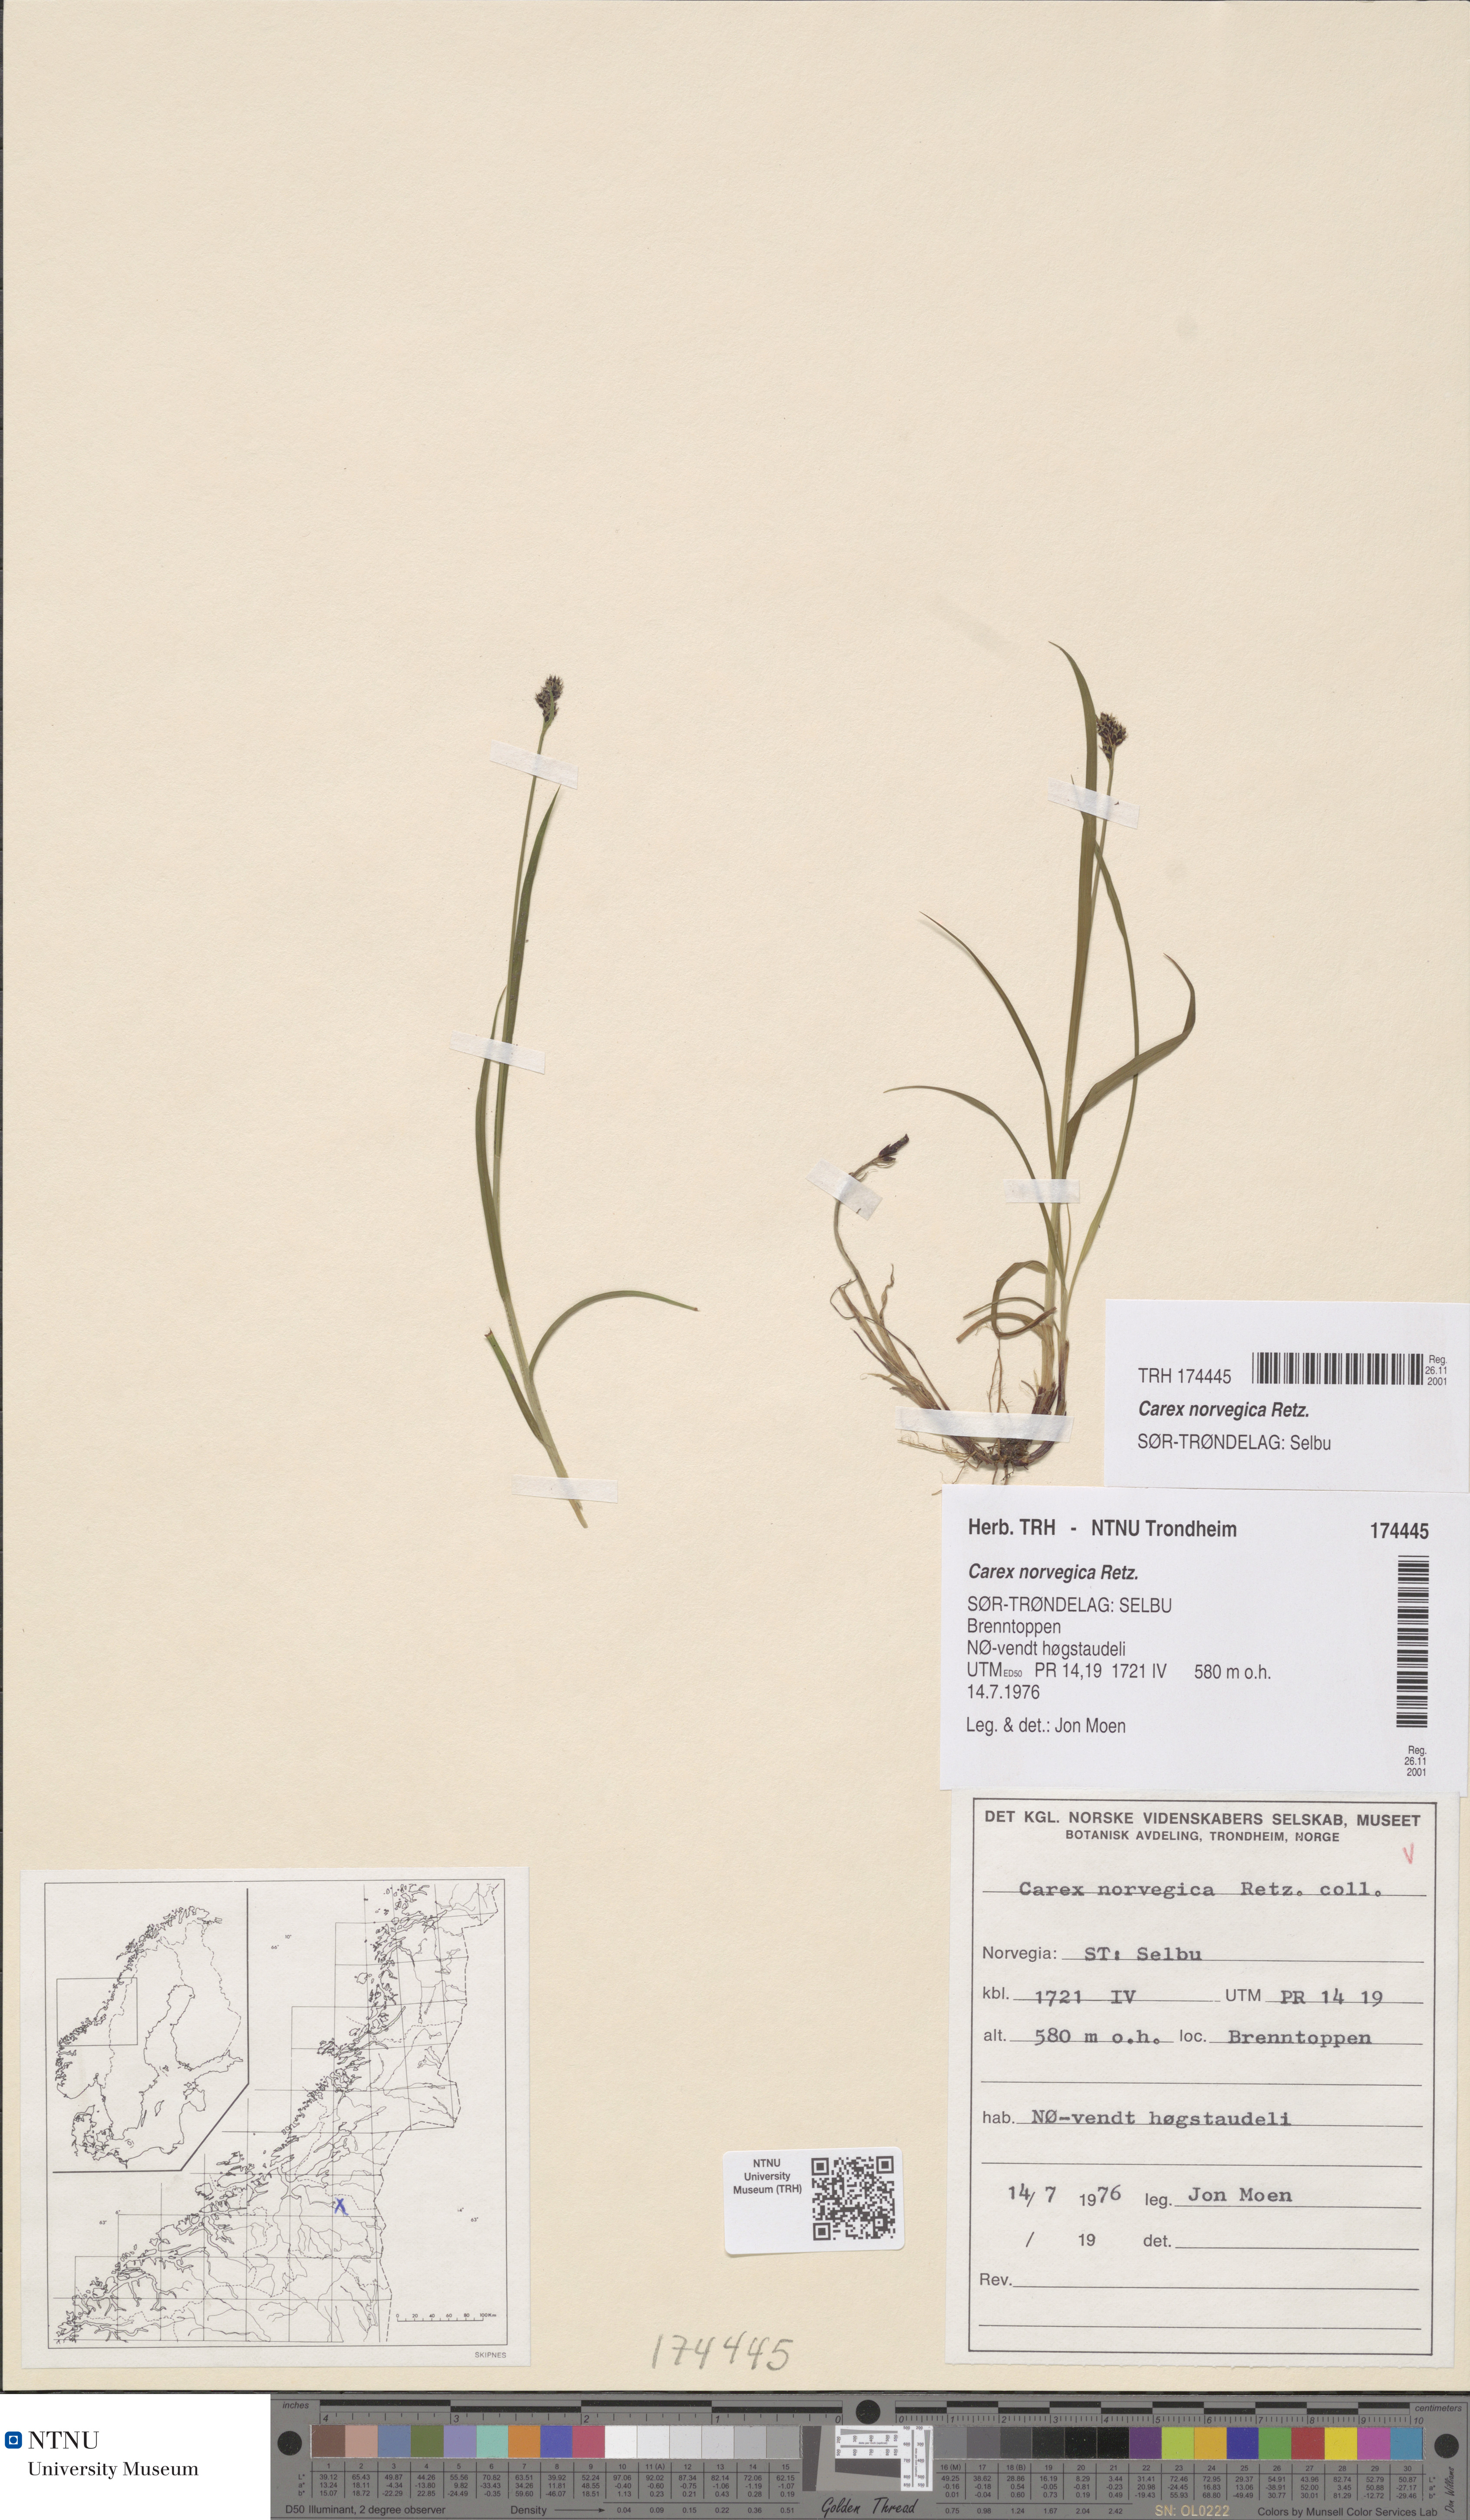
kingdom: Plantae
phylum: Tracheophyta
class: Liliopsida
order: Poales
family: Cyperaceae
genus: Carex
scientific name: Carex norvegica
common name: Close-headed alpine-sedge
